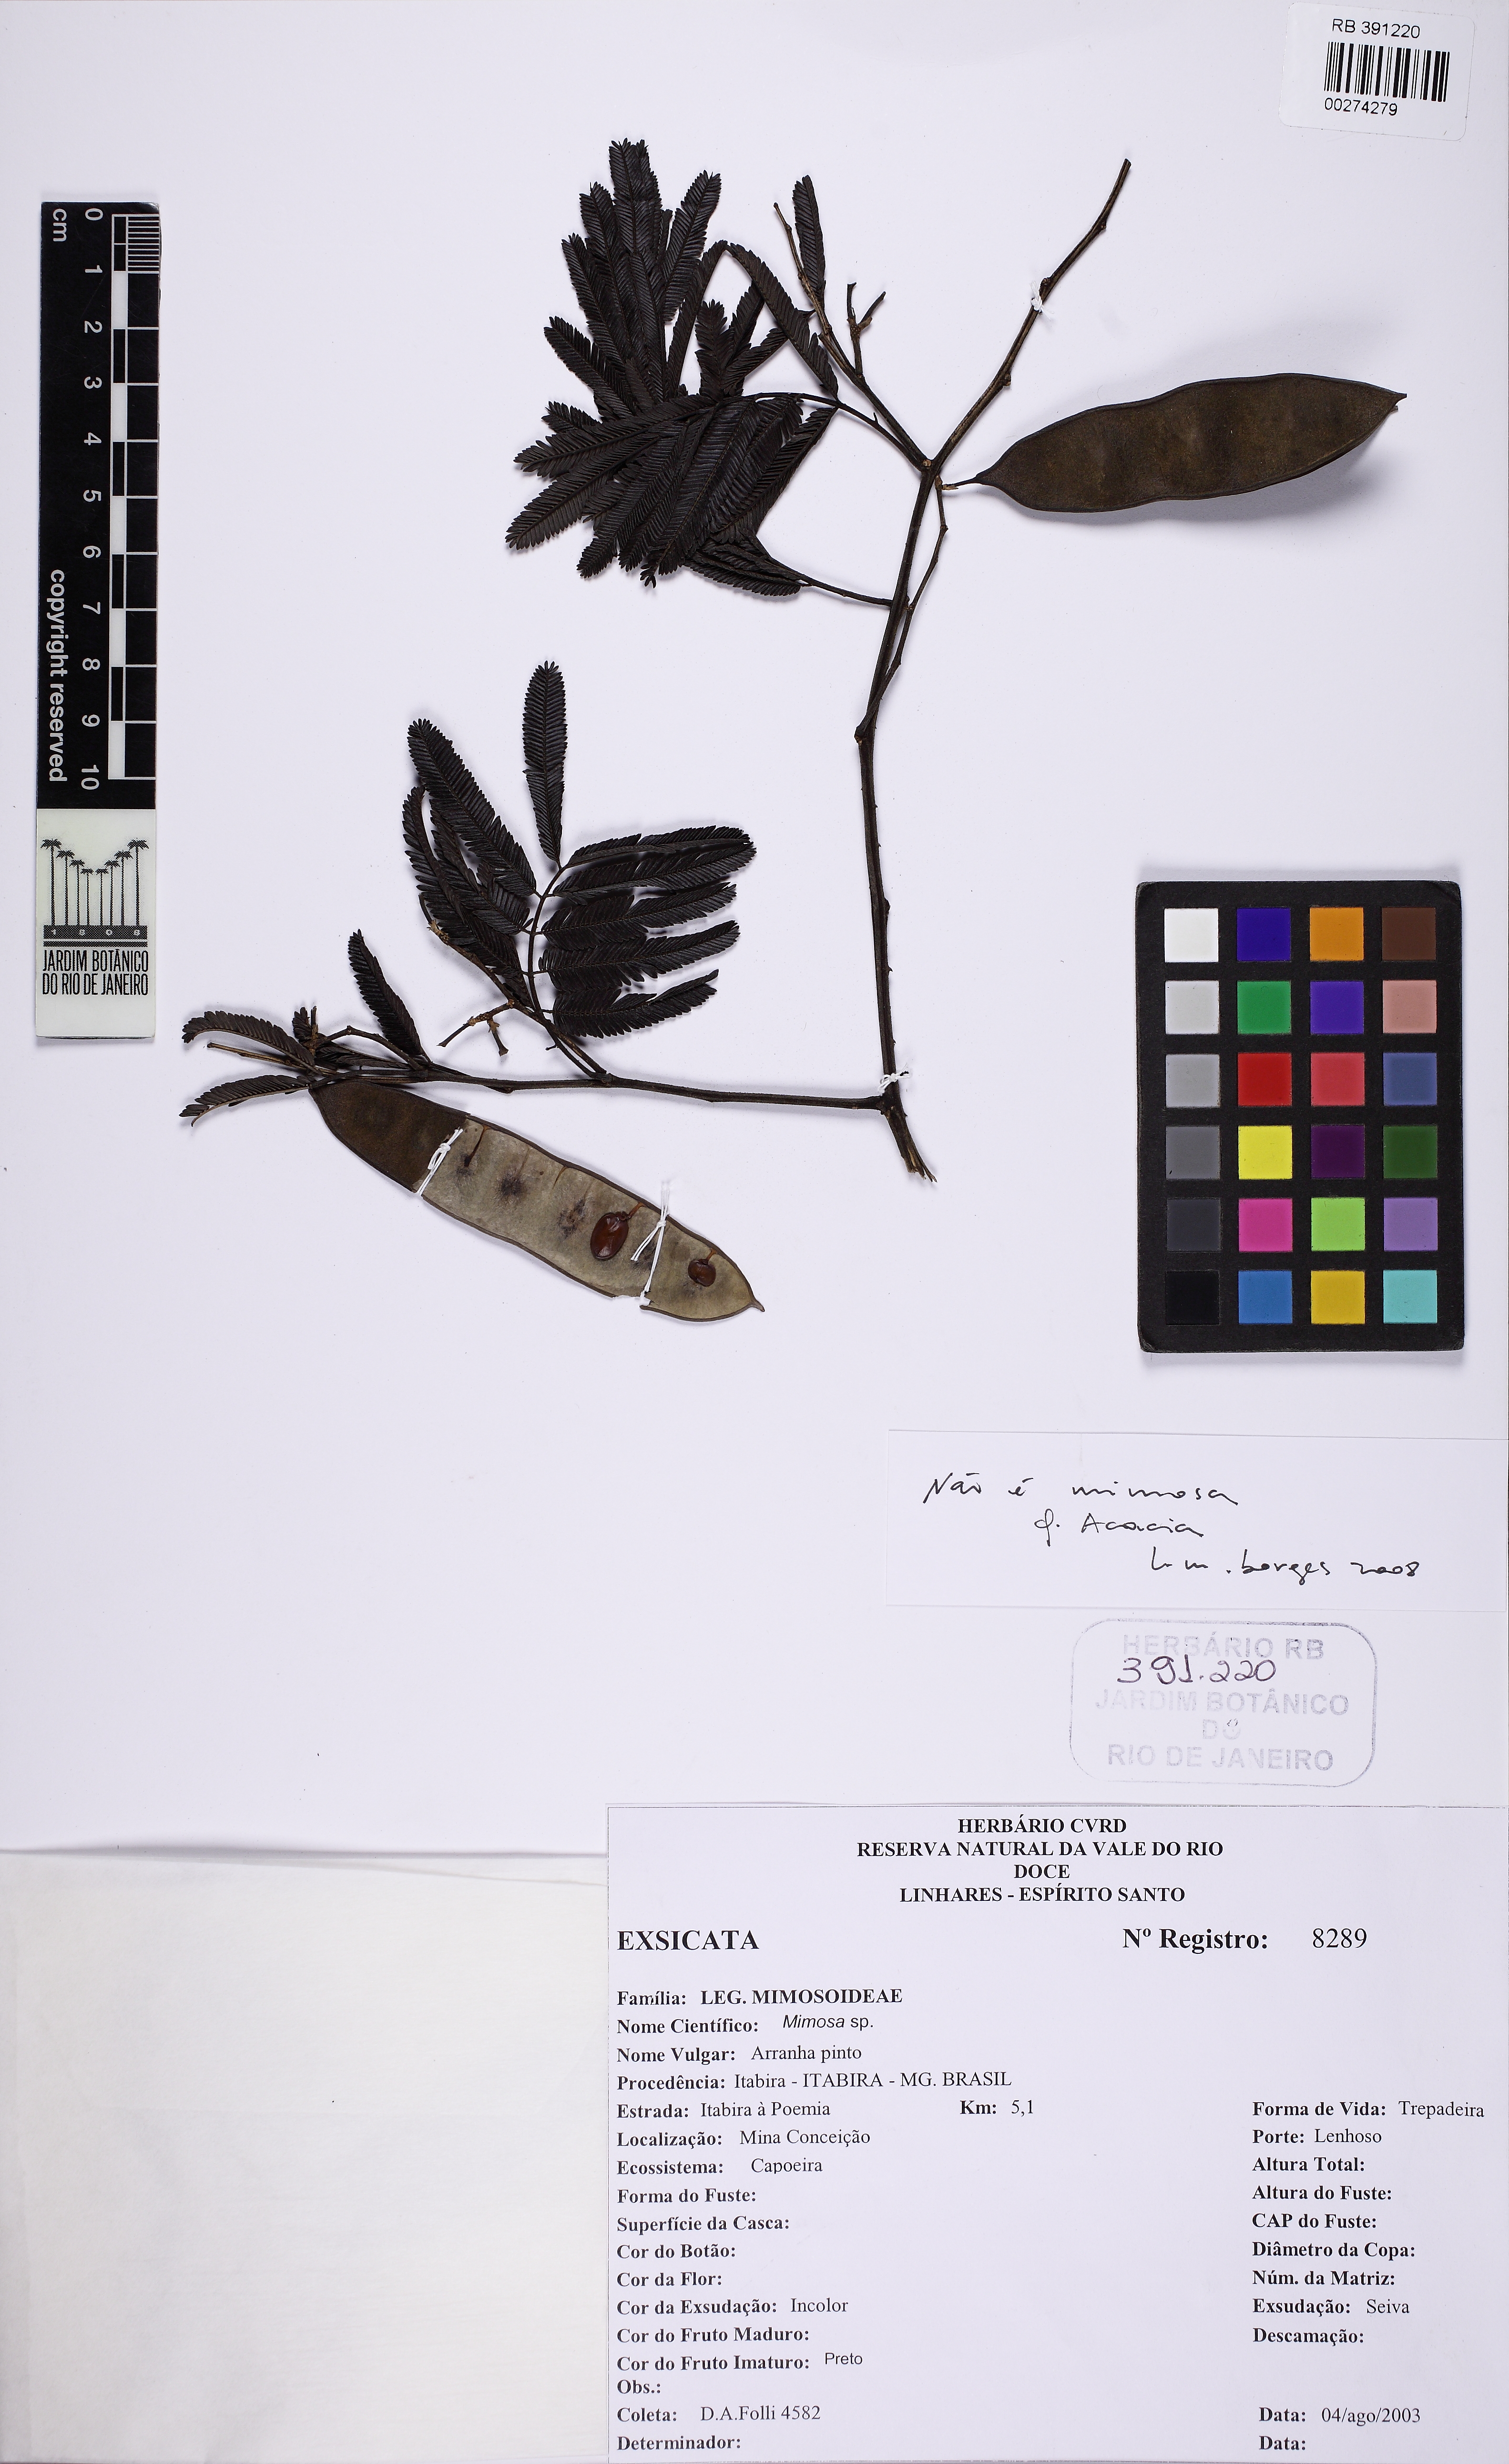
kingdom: Plantae
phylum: Tracheophyta
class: Magnoliopsida
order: Fabales
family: Fabaceae
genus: Acacia
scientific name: Acacia
